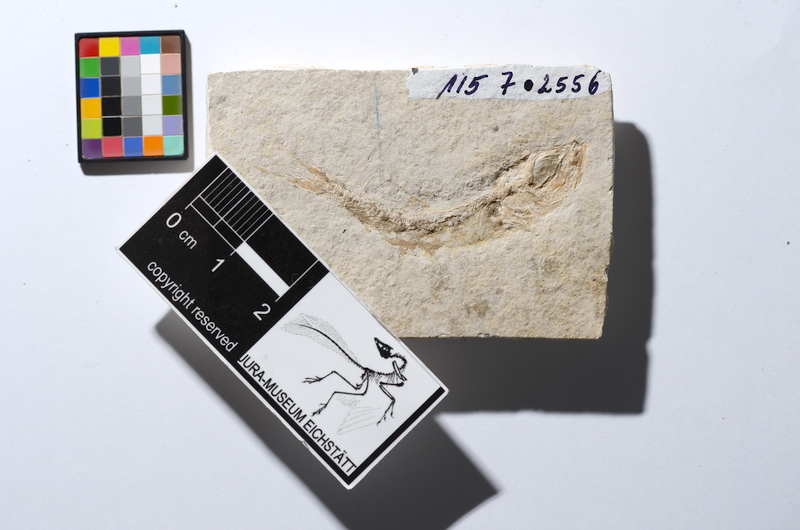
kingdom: Animalia
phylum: Chordata
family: Ascalaboidae
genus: Tharsis
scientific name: Tharsis dubius
